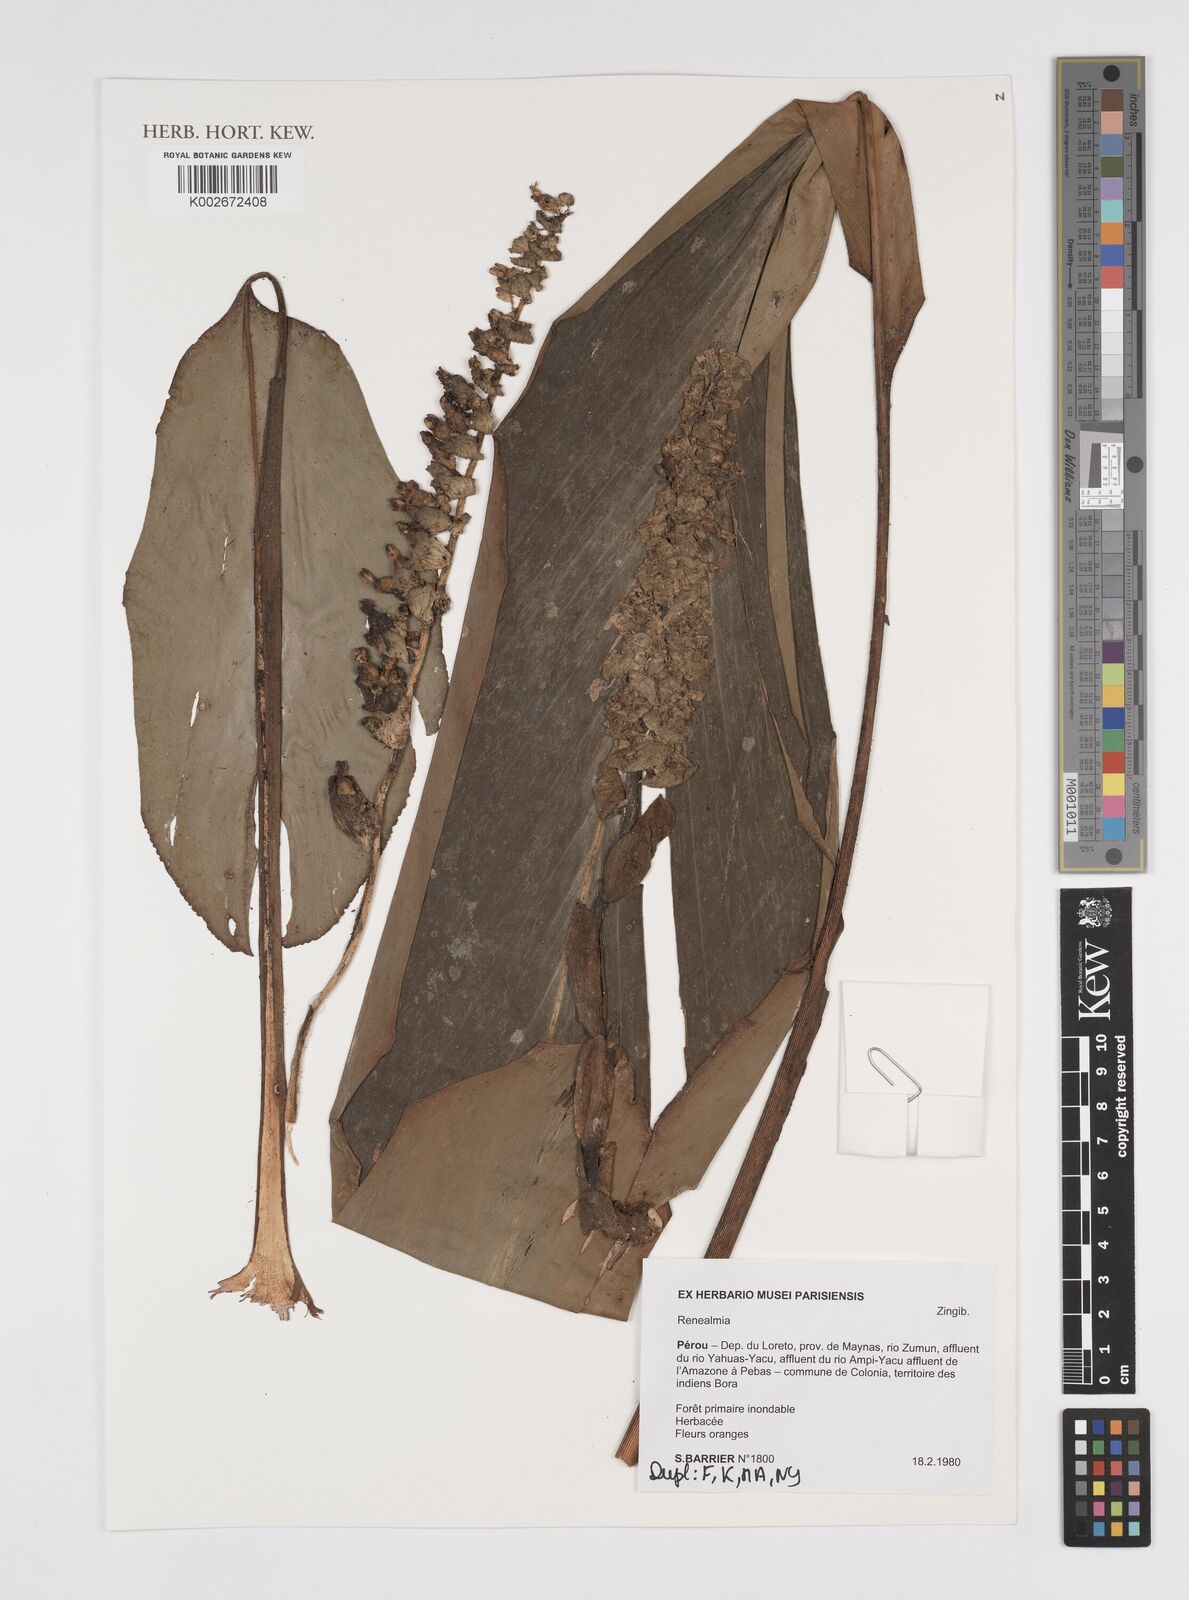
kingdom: Plantae
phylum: Tracheophyta
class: Liliopsida
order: Zingiberales
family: Zingiberaceae
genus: Renealmia
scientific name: Renealmia
